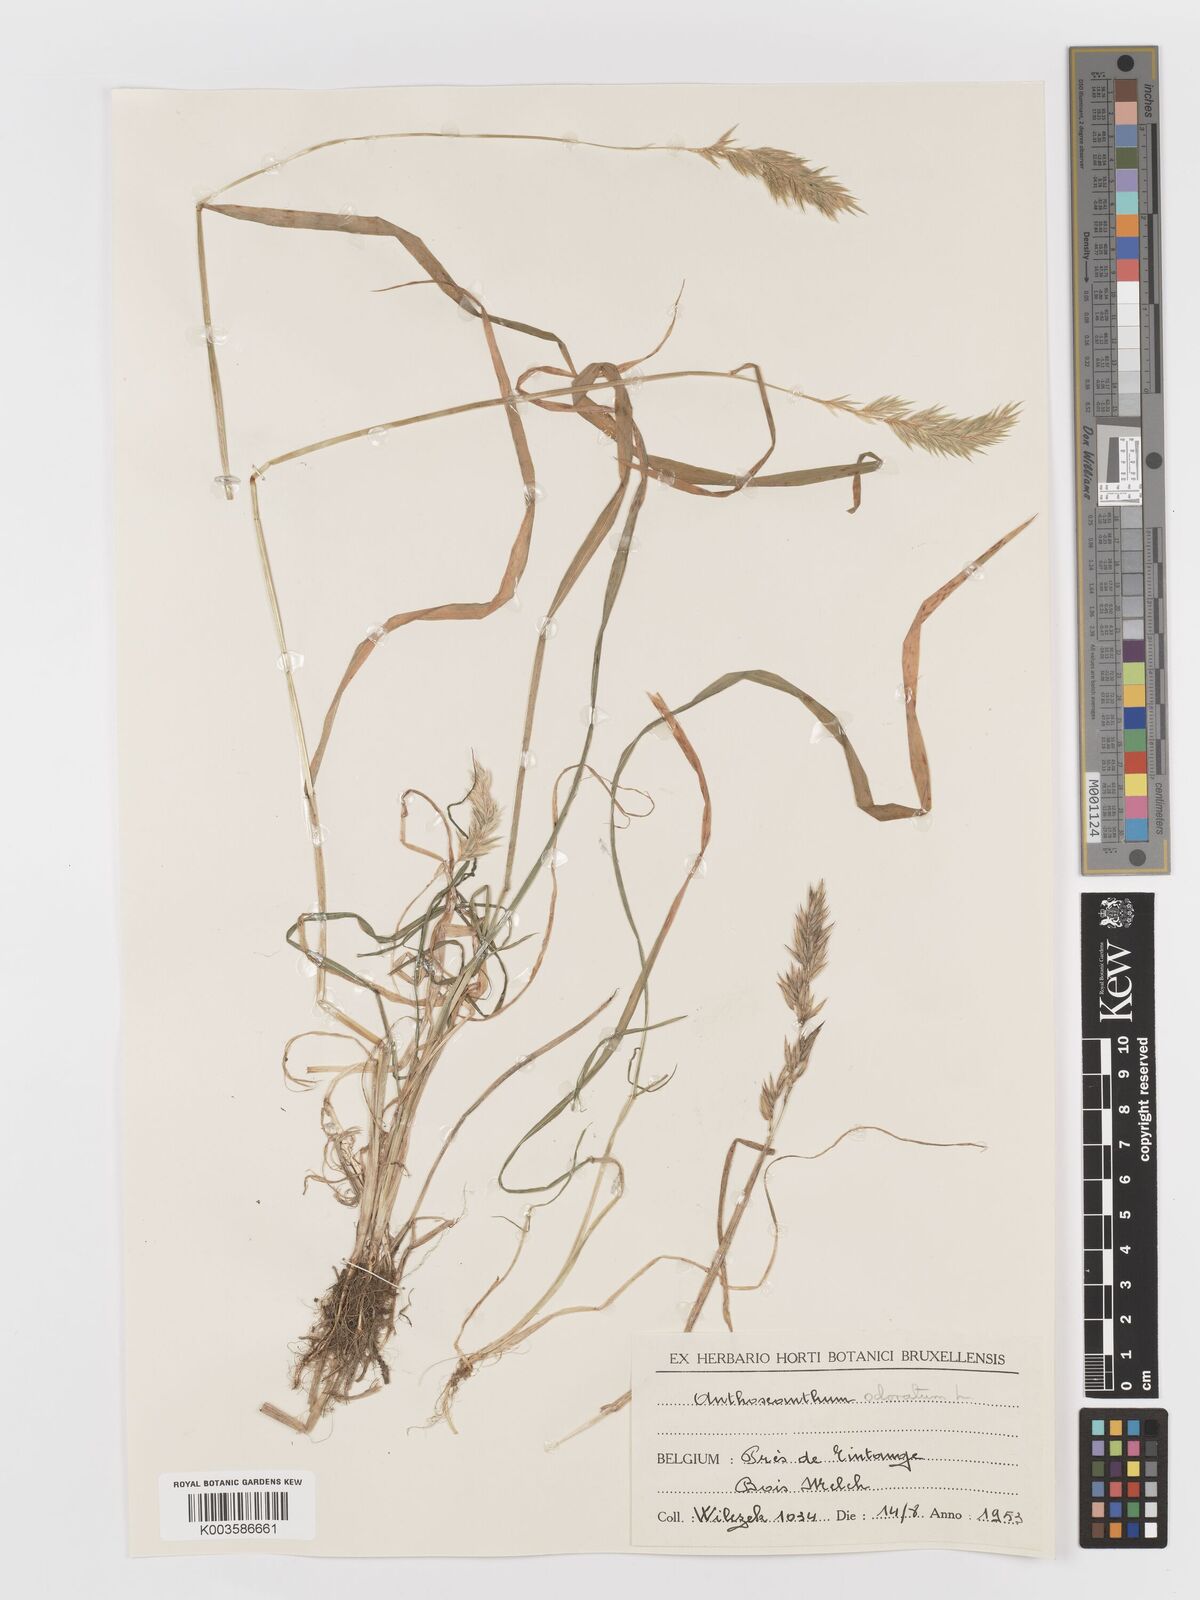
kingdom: Plantae
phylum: Tracheophyta
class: Liliopsida
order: Poales
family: Poaceae
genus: Anthoxanthum
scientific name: Anthoxanthum odoratum
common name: Sweet vernalgrass
